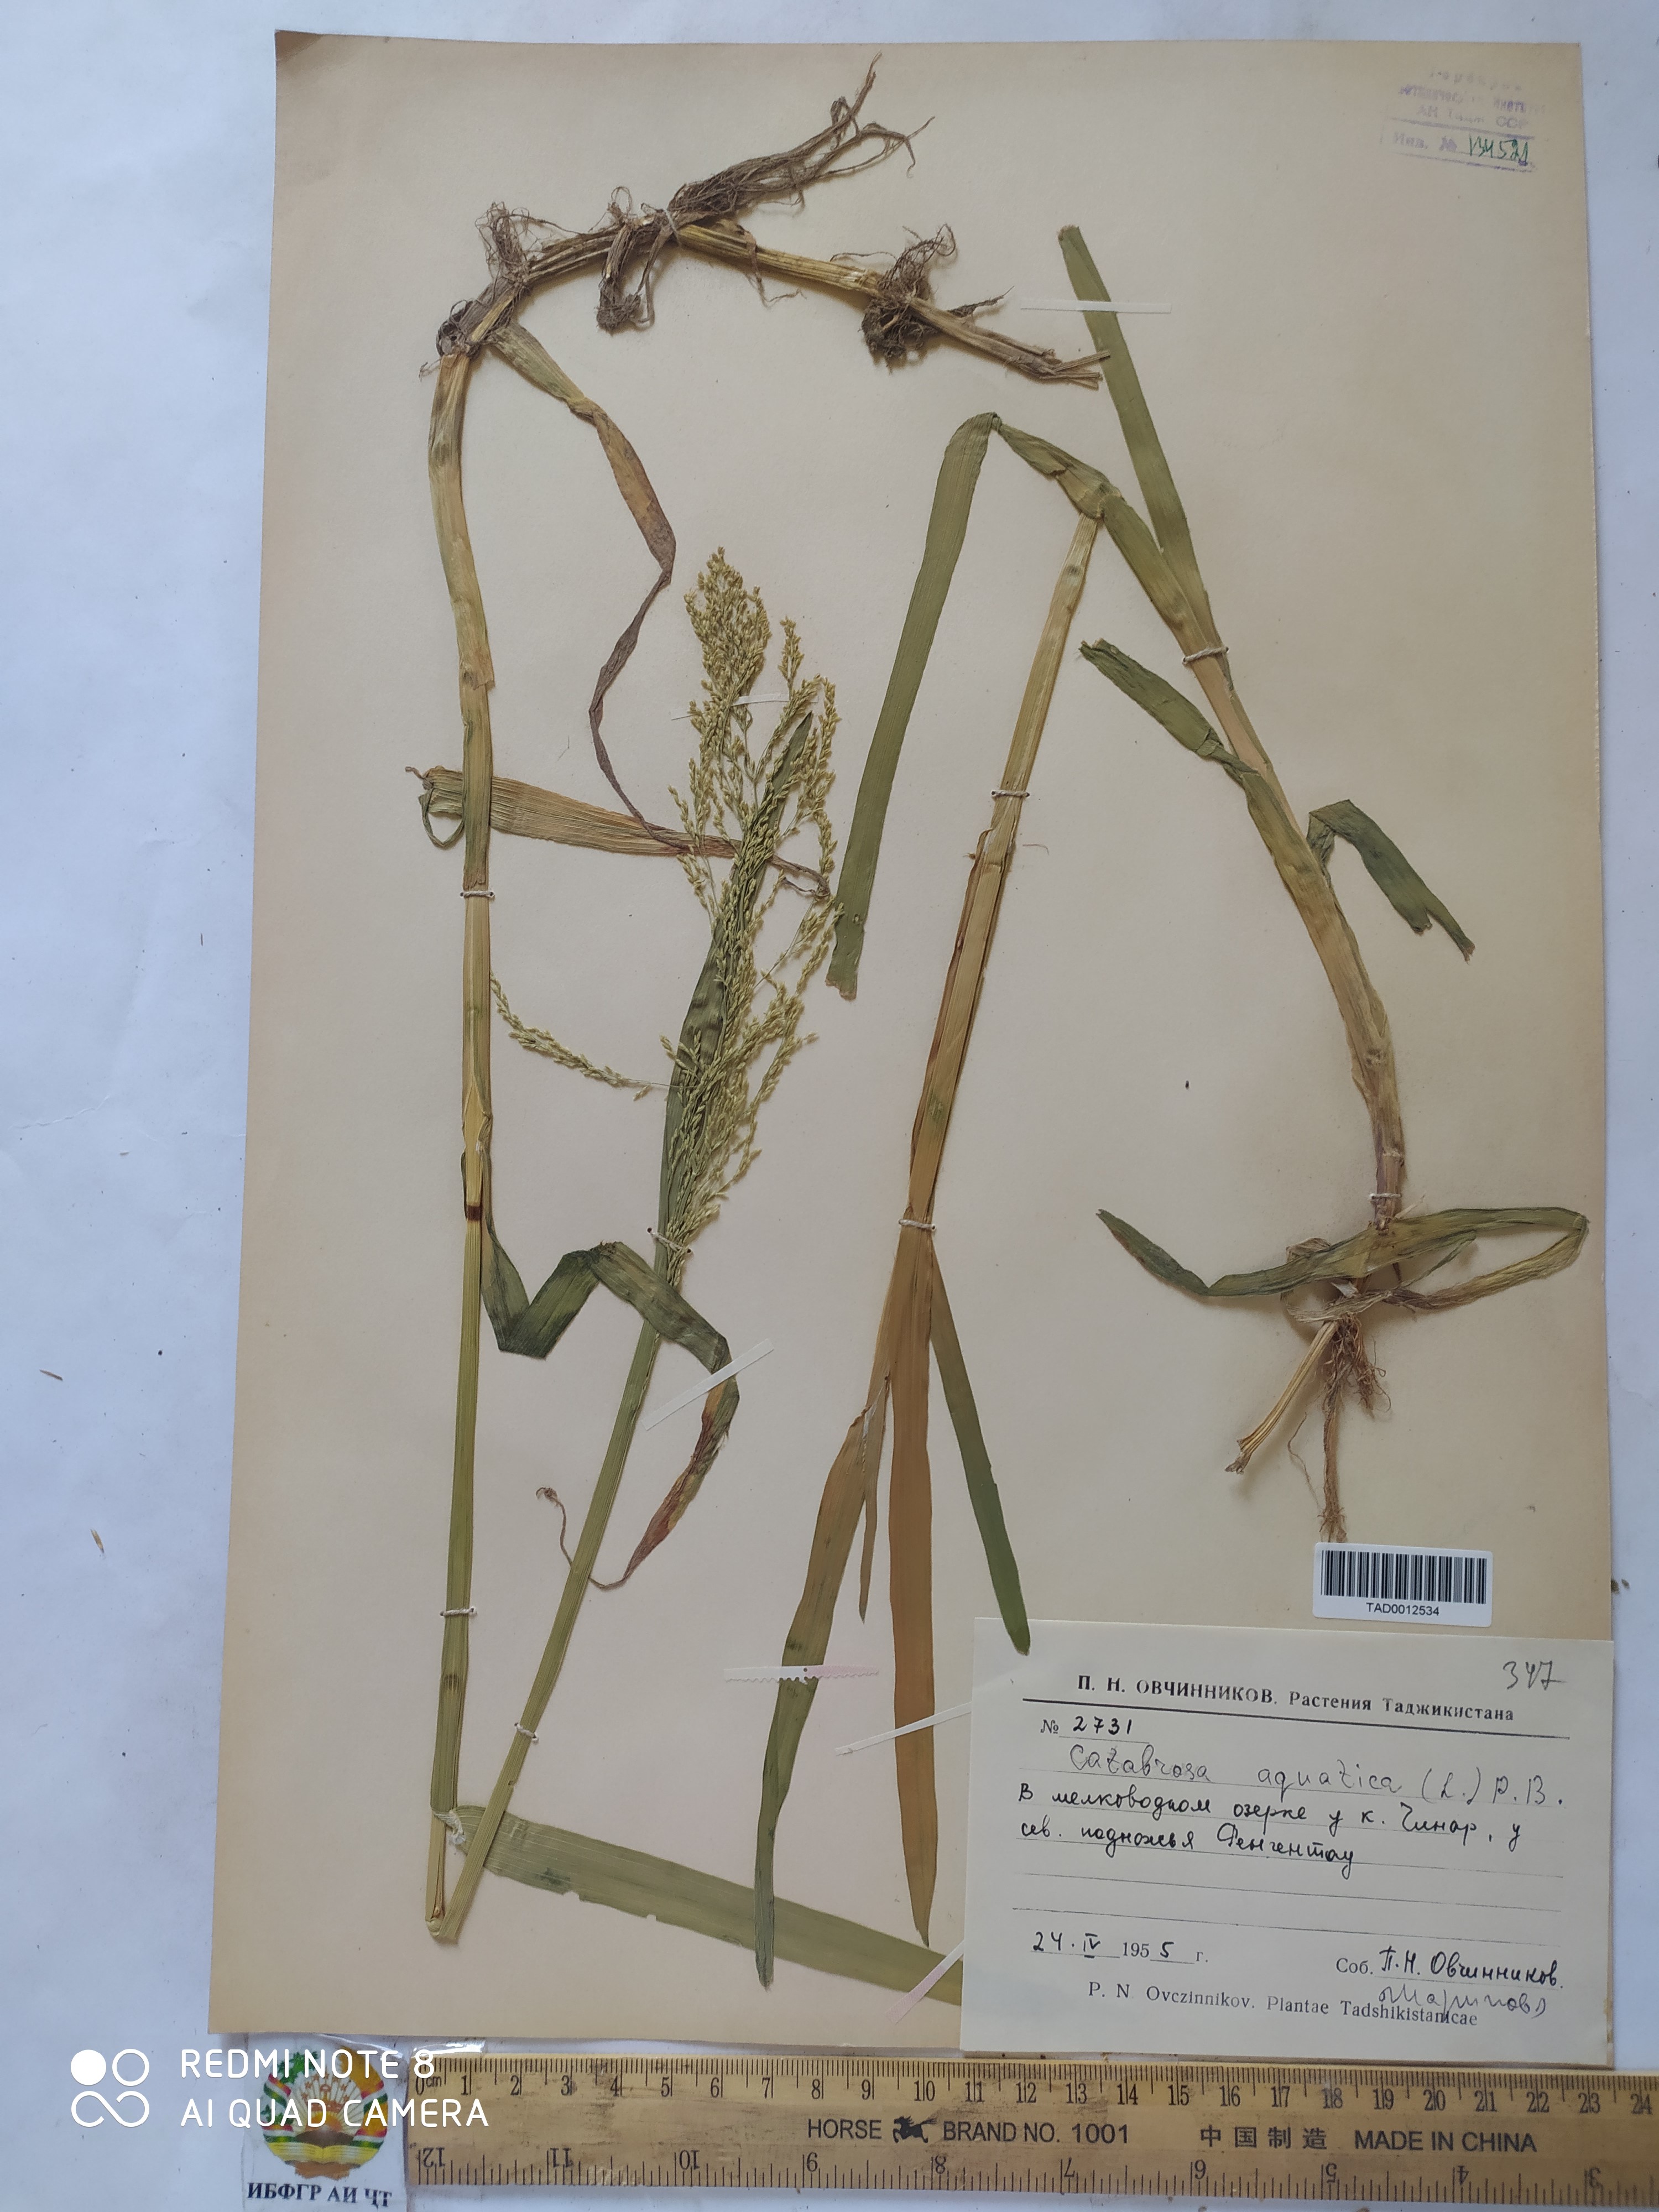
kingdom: Plantae
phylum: Tracheophyta
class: Liliopsida
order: Poales
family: Poaceae
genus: Catabrosa
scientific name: Catabrosa aquatica
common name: Whorl-grass
